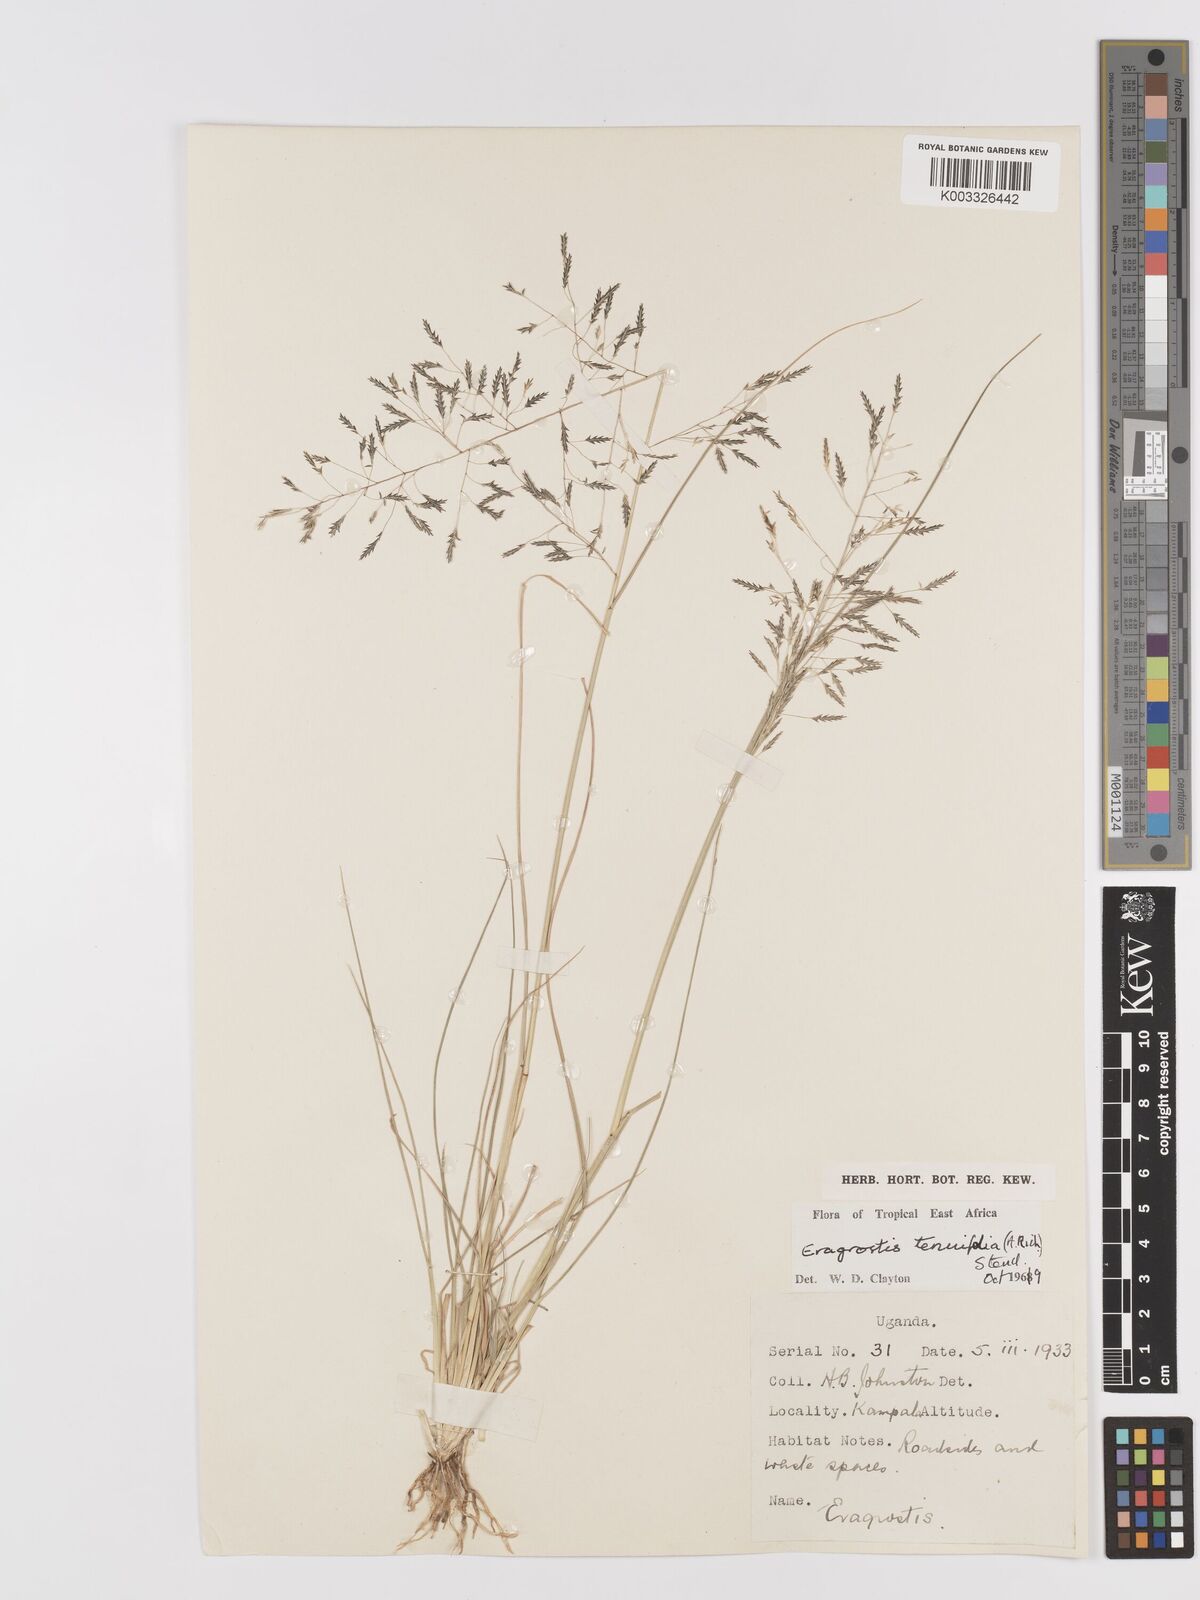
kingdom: Plantae
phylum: Tracheophyta
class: Liliopsida
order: Poales
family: Poaceae
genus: Eragrostis
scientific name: Eragrostis tenuifolia
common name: Elastic grass
